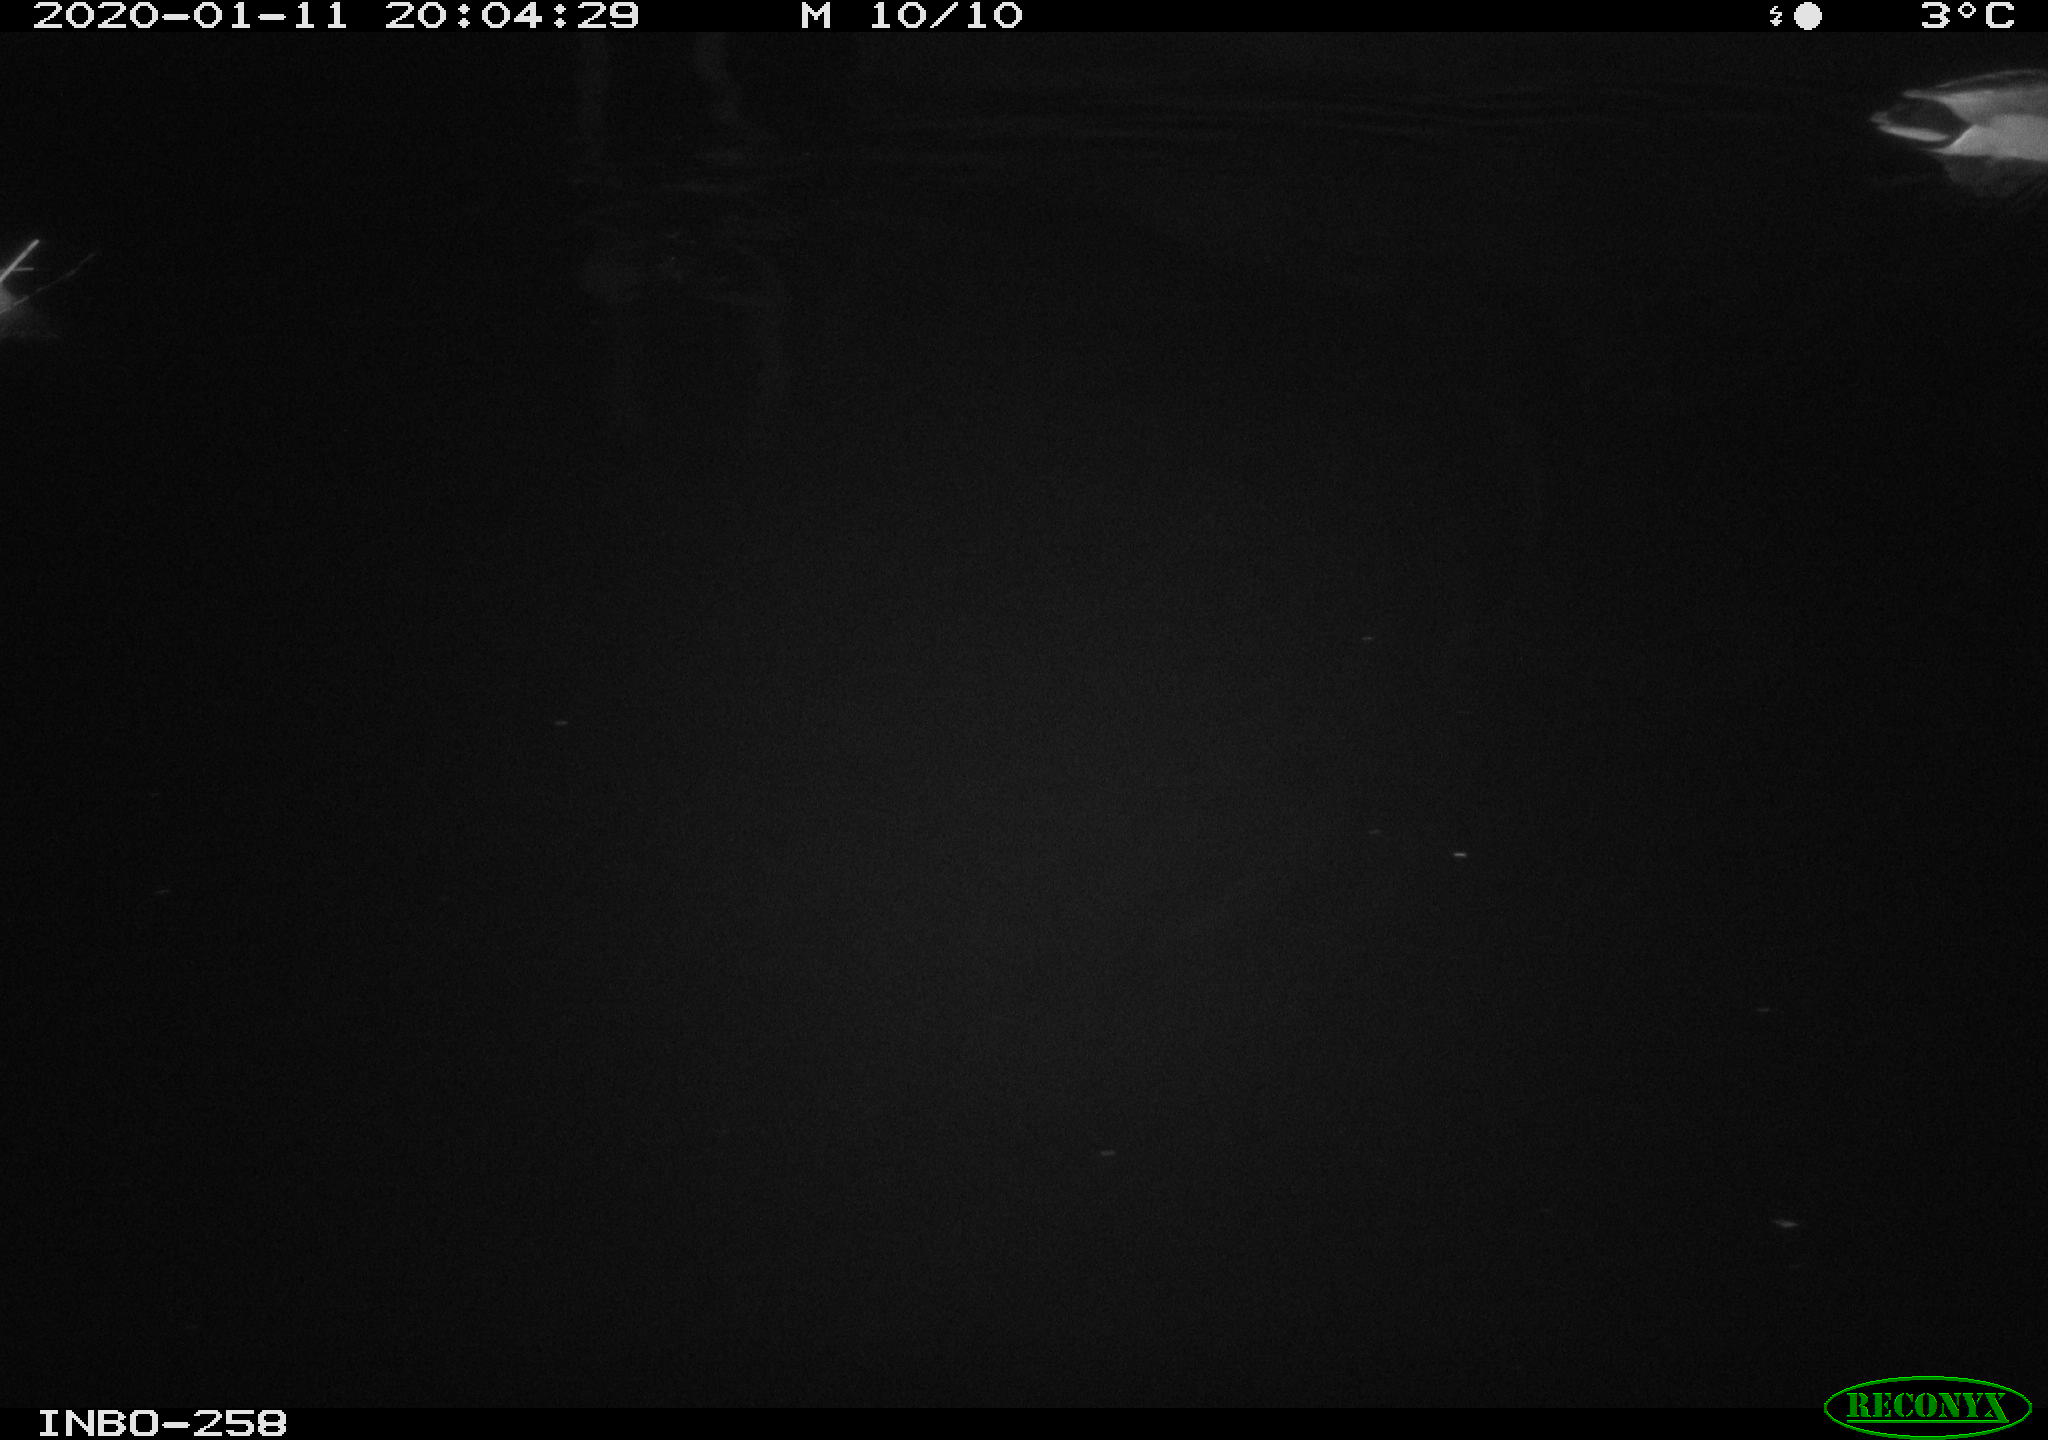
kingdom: Animalia
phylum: Chordata
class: Aves
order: Anseriformes
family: Anatidae
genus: Anas
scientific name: Anas platyrhynchos
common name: Mallard
